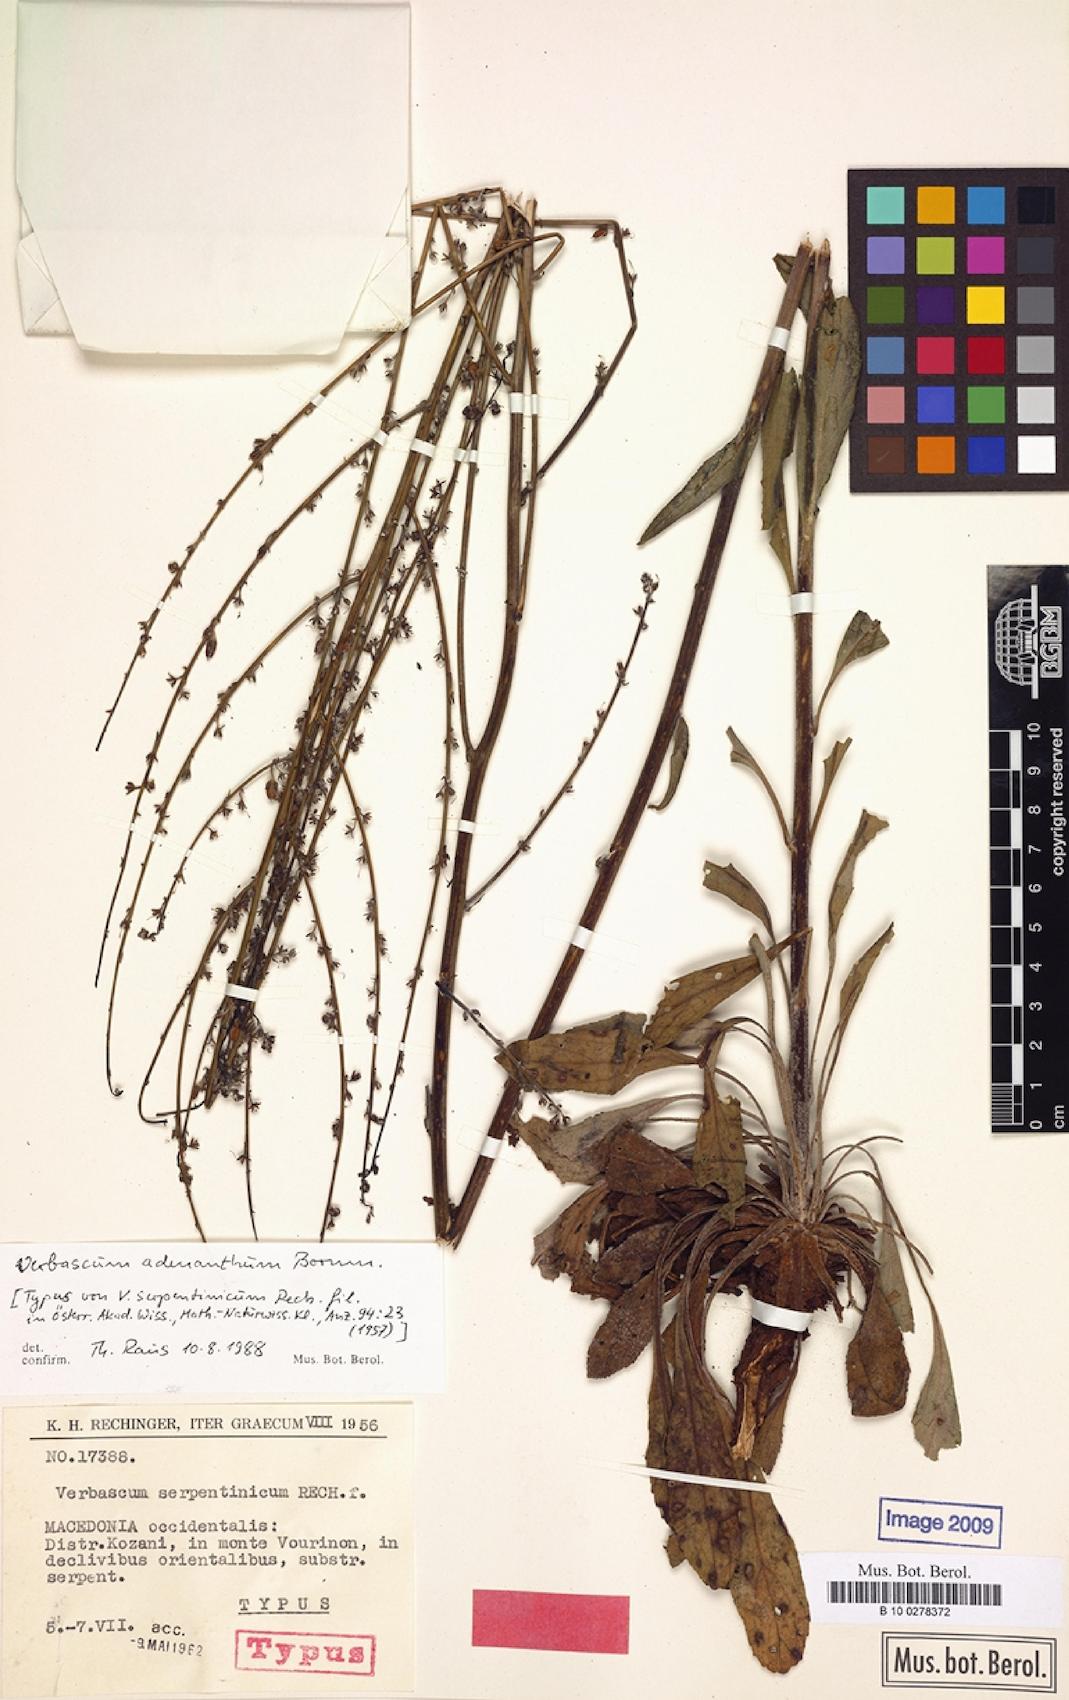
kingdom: Plantae
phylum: Tracheophyta
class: Magnoliopsida
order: Lamiales
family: Scrophulariaceae
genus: Verbascum
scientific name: Verbascum adenanthum
